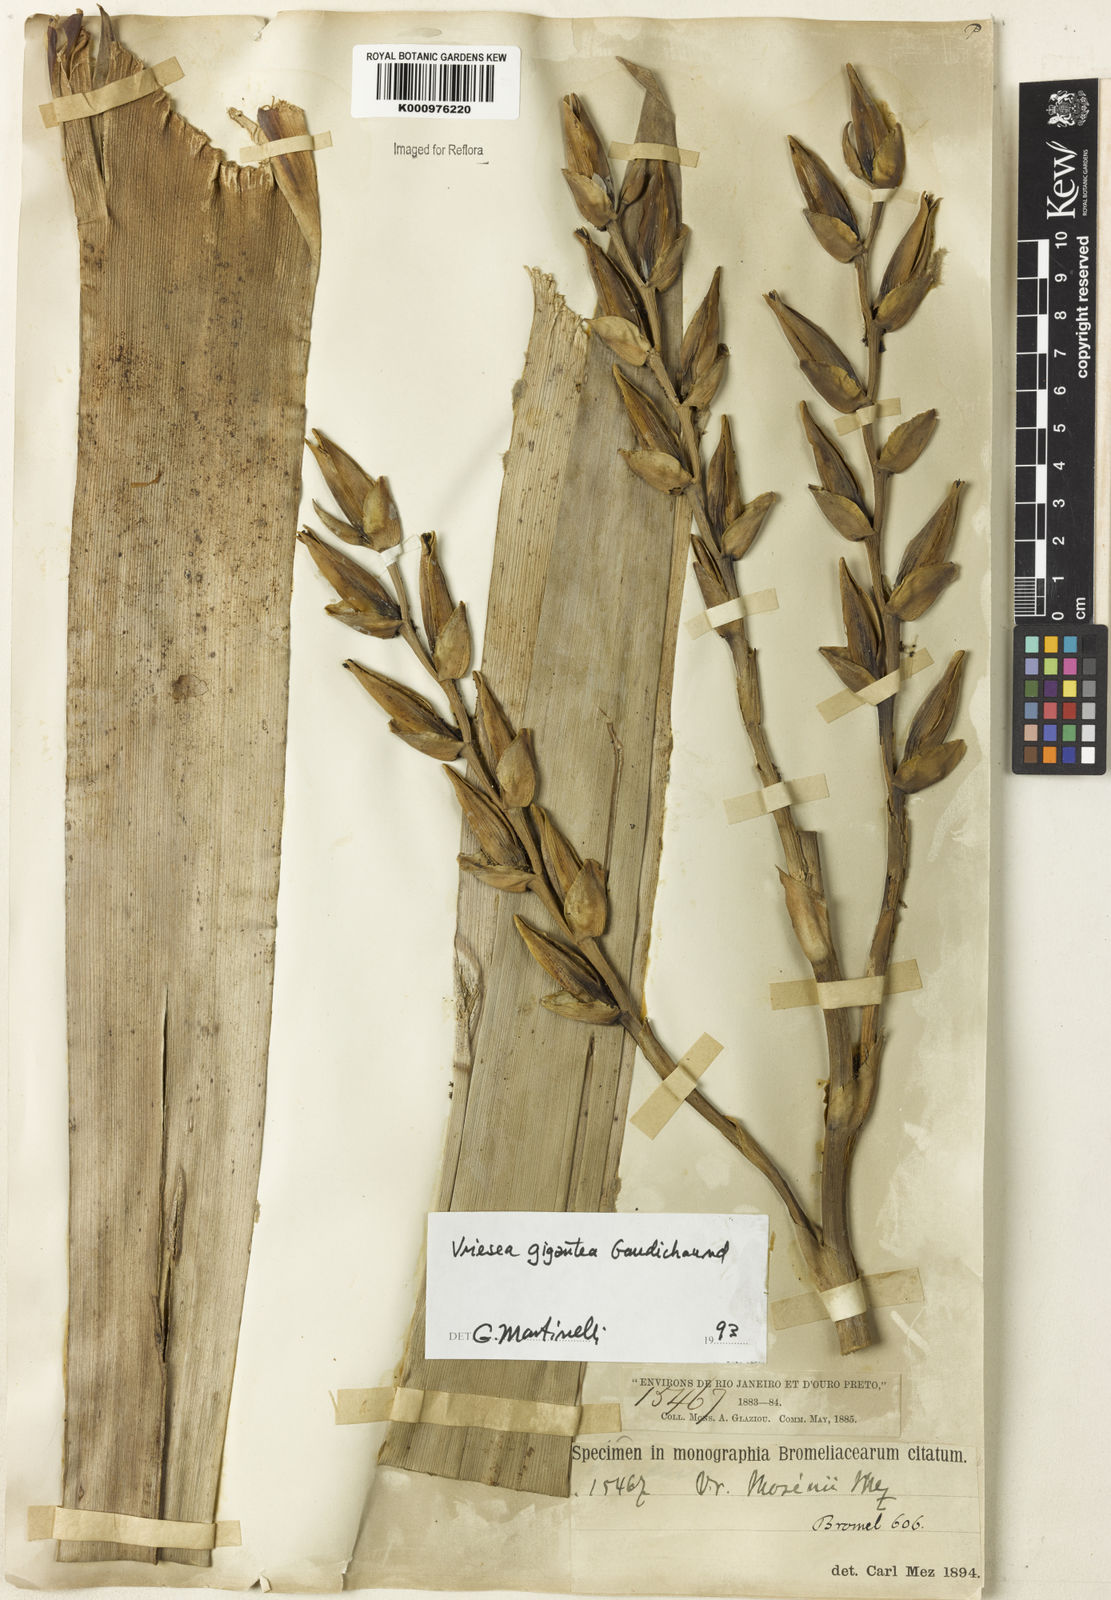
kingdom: Plantae
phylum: Tracheophyta
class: Liliopsida
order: Poales
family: Bromeliaceae
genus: Vriesea
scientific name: Vriesea gigantea
